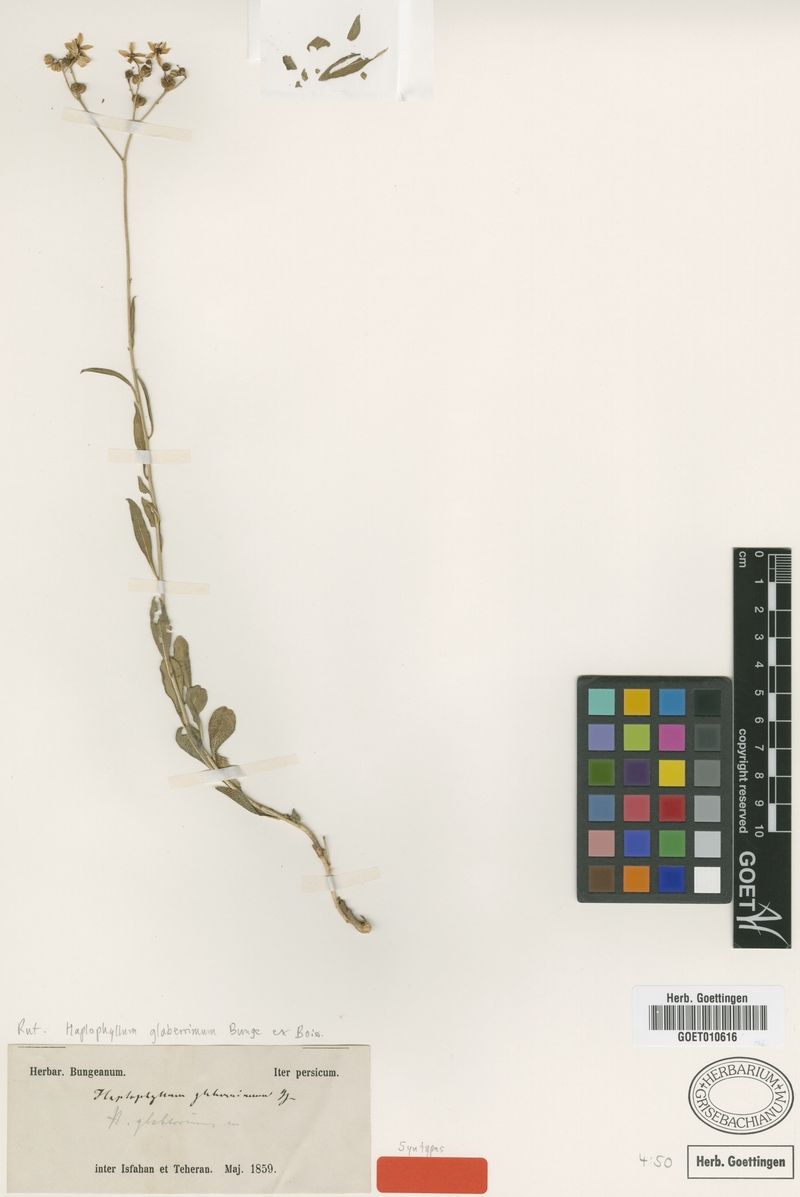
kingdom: Plantae
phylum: Tracheophyta
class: Magnoliopsida
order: Sapindales
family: Rutaceae
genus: Haplophyllum
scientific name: Haplophyllum glaberrimum
